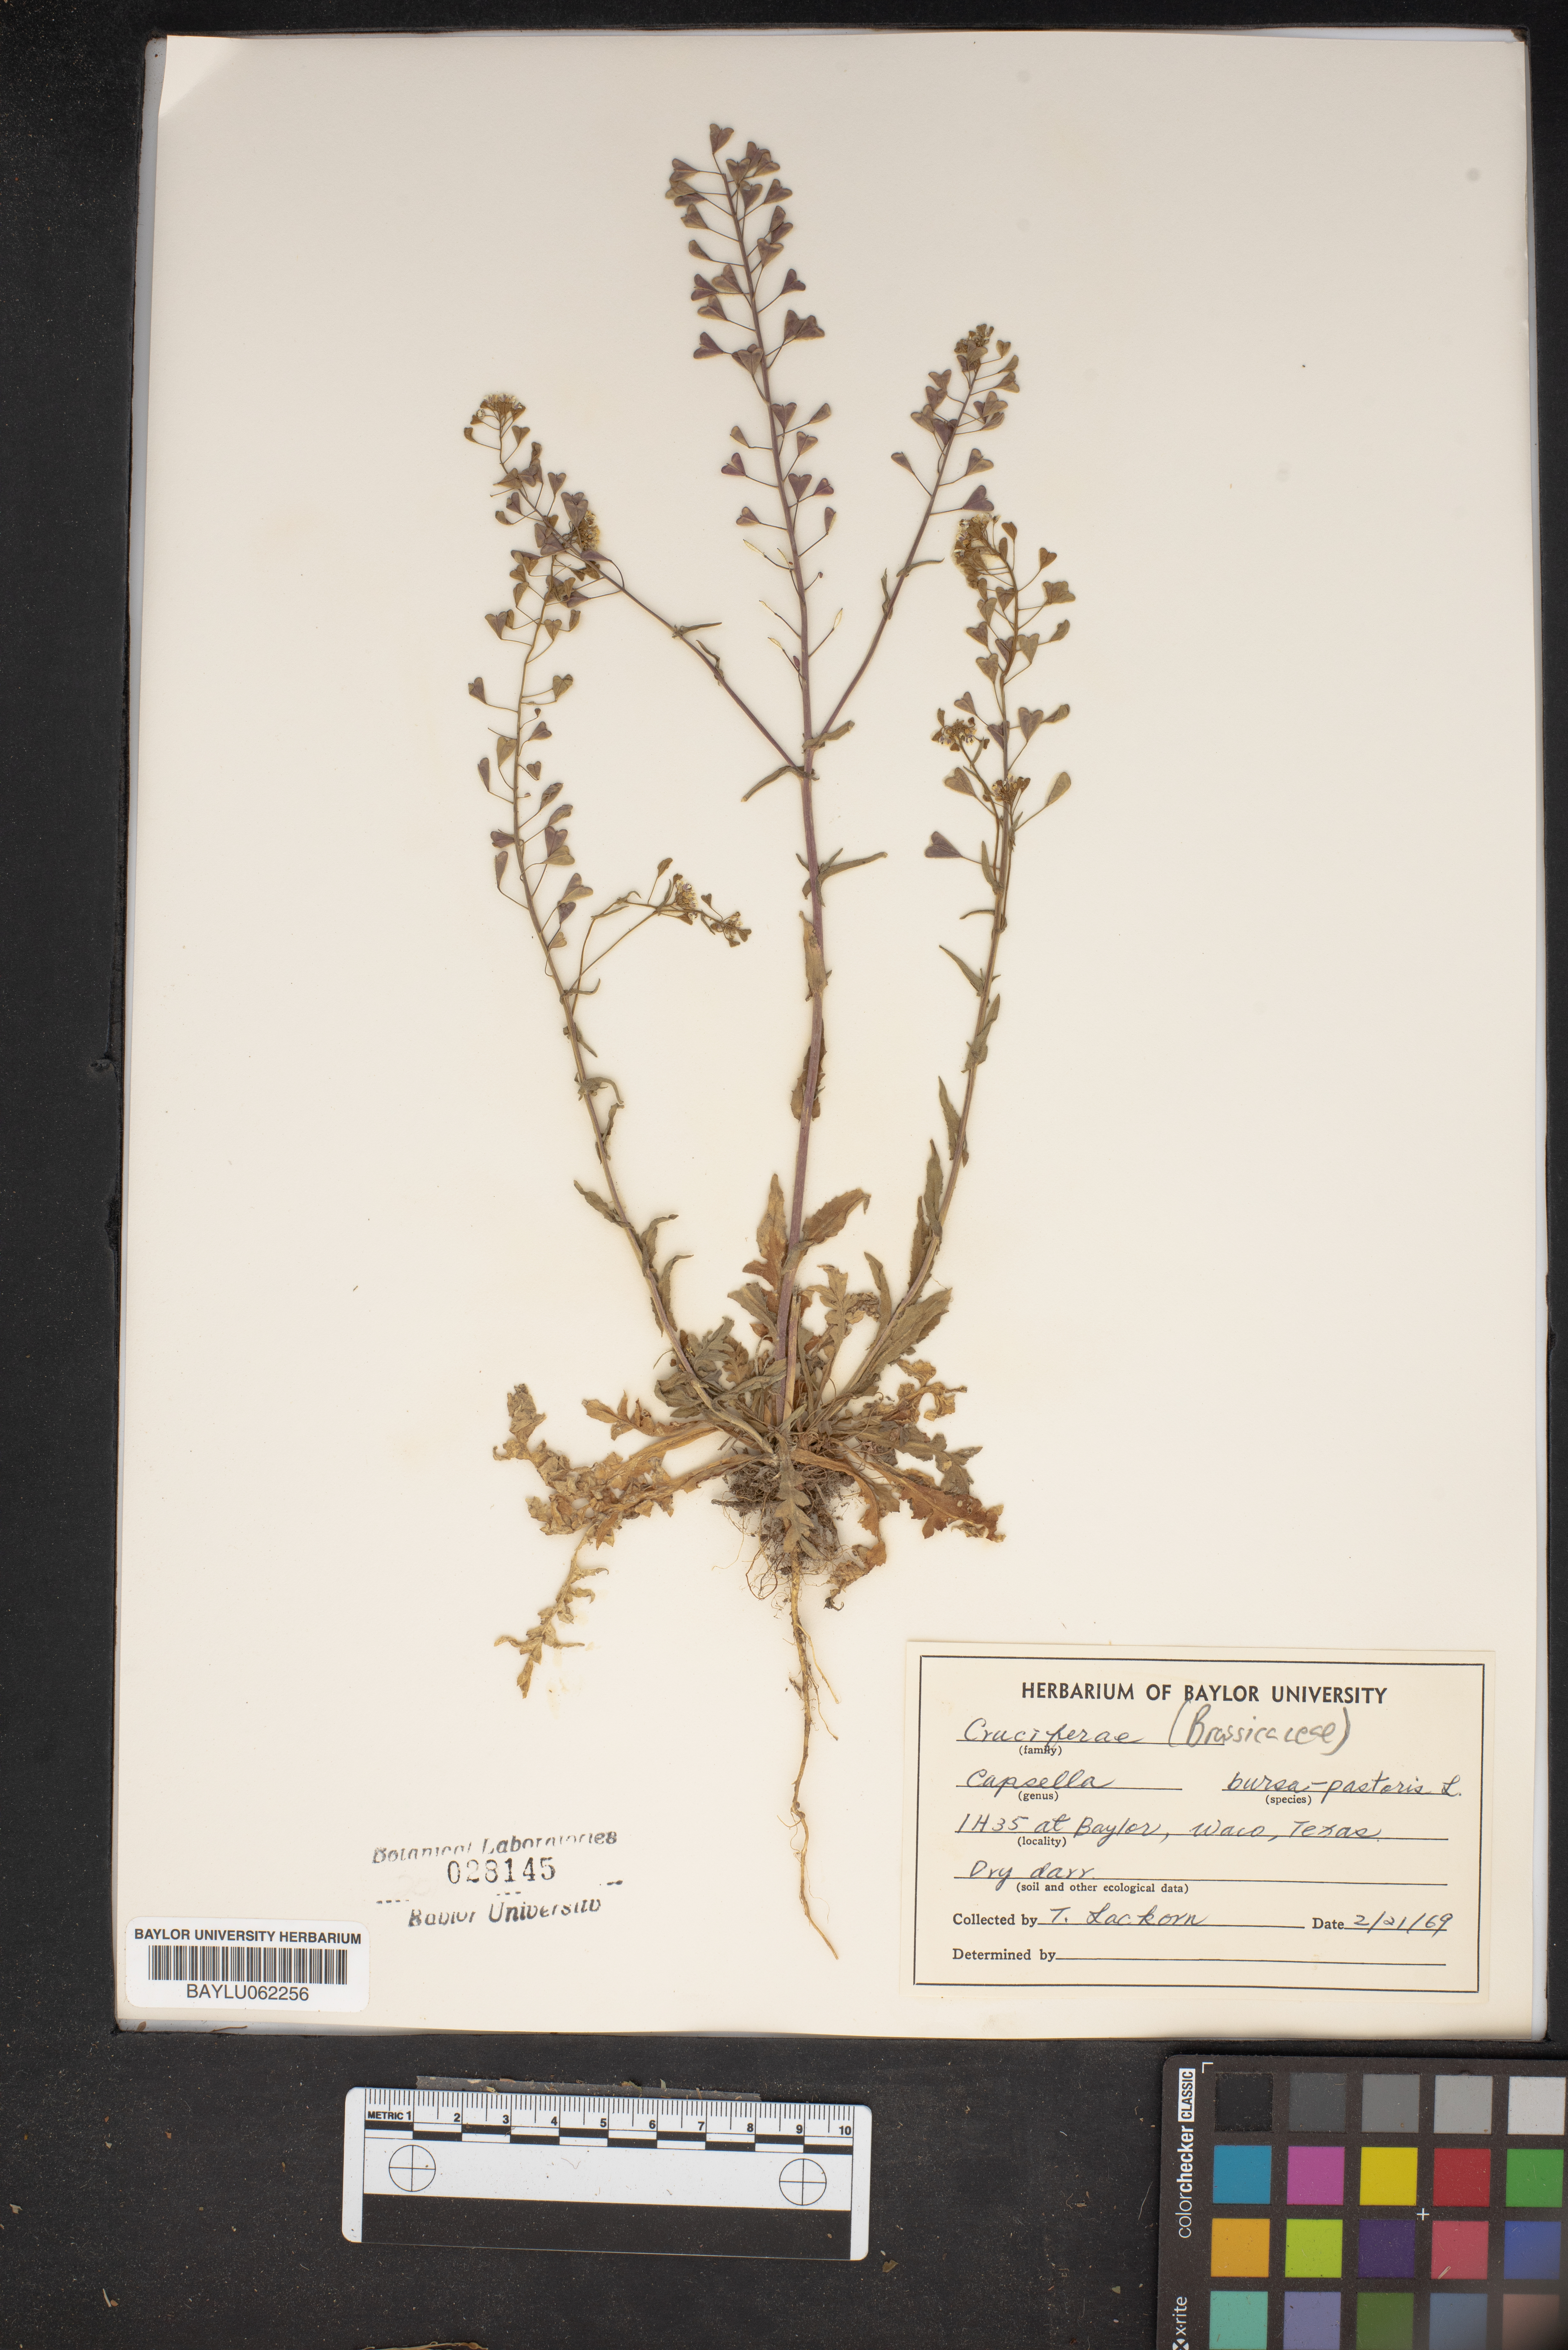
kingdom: Plantae
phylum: Tracheophyta
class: Magnoliopsida
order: Brassicales
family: Brassicaceae
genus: Capsella
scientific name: Capsella bursa-pastoris
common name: Shepherd's purse
